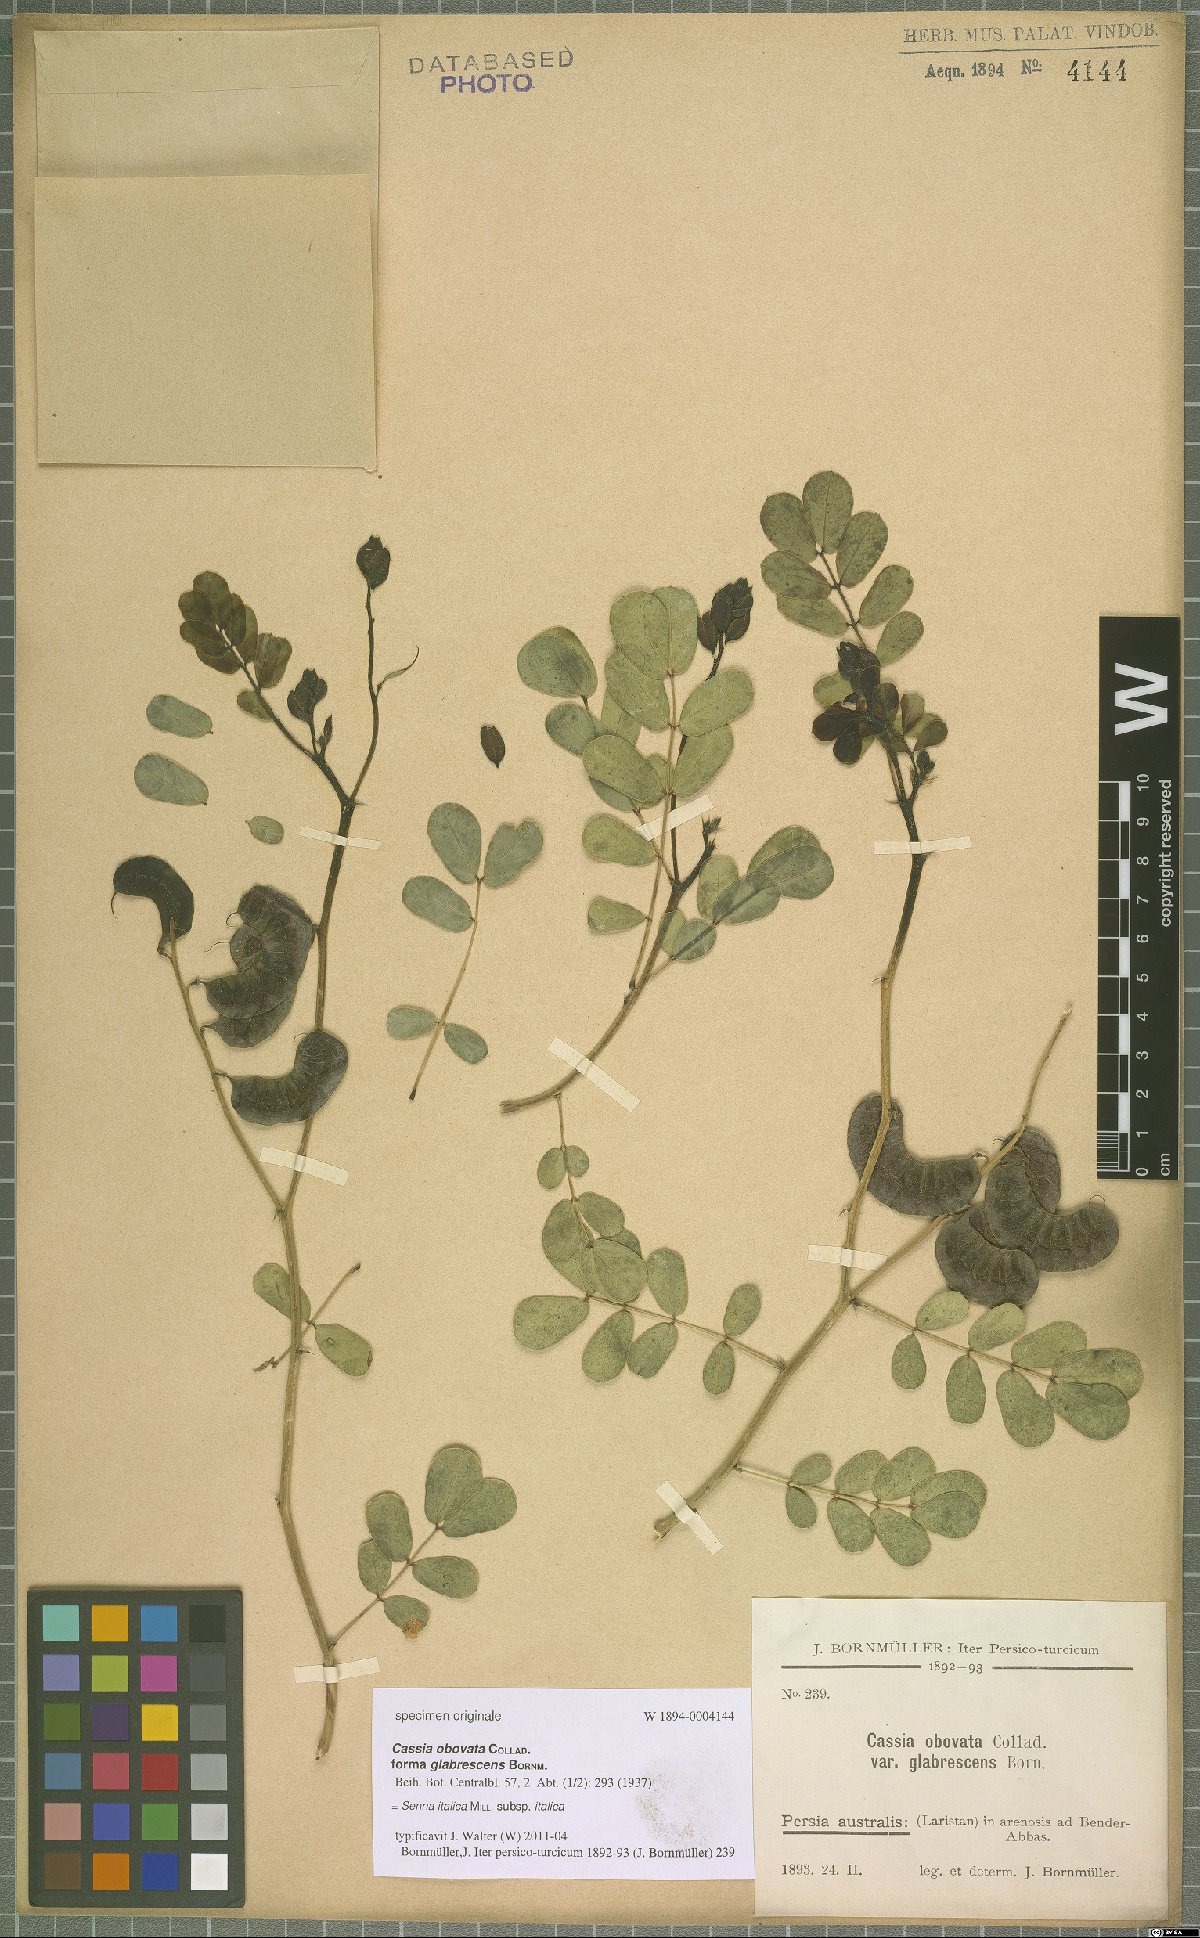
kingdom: Plantae
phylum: Tracheophyta
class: Magnoliopsida
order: Fabales
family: Fabaceae
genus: Senna
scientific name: Senna italica
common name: Port royal senna
